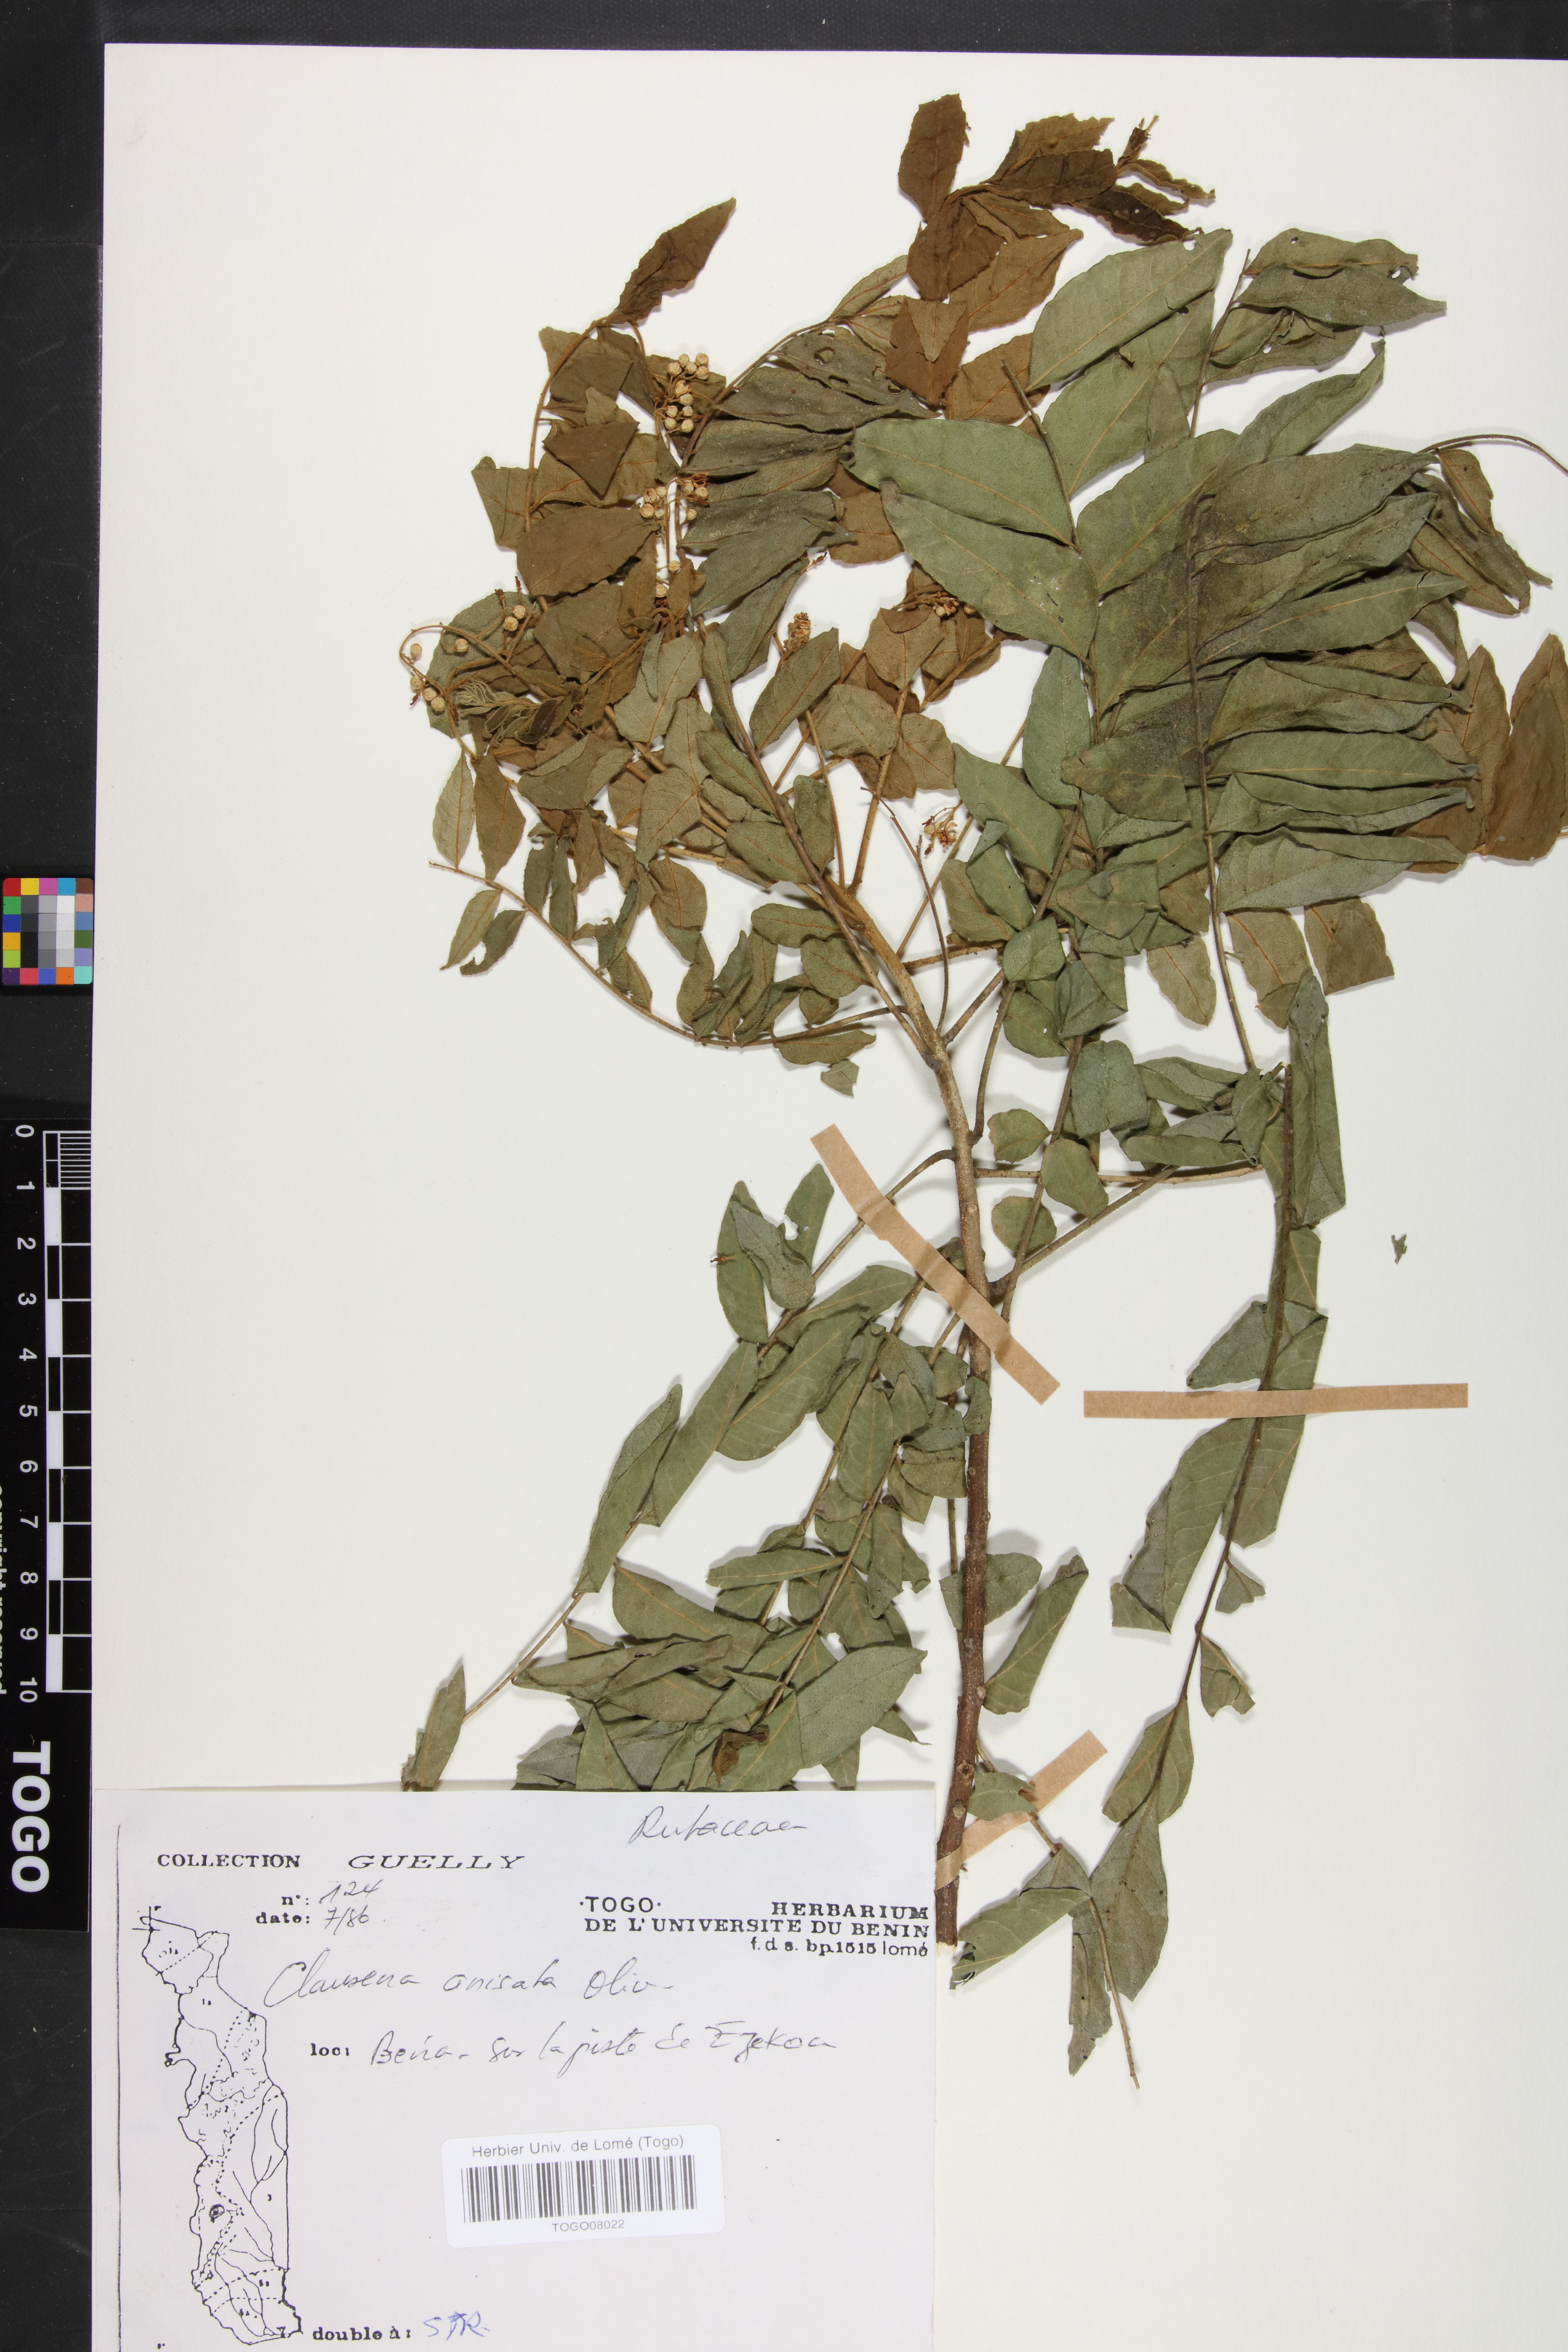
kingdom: Plantae
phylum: Tracheophyta
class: Magnoliopsida
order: Sapindales
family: Rutaceae
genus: Clausena
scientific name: Clausena anisata
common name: Horsewood
